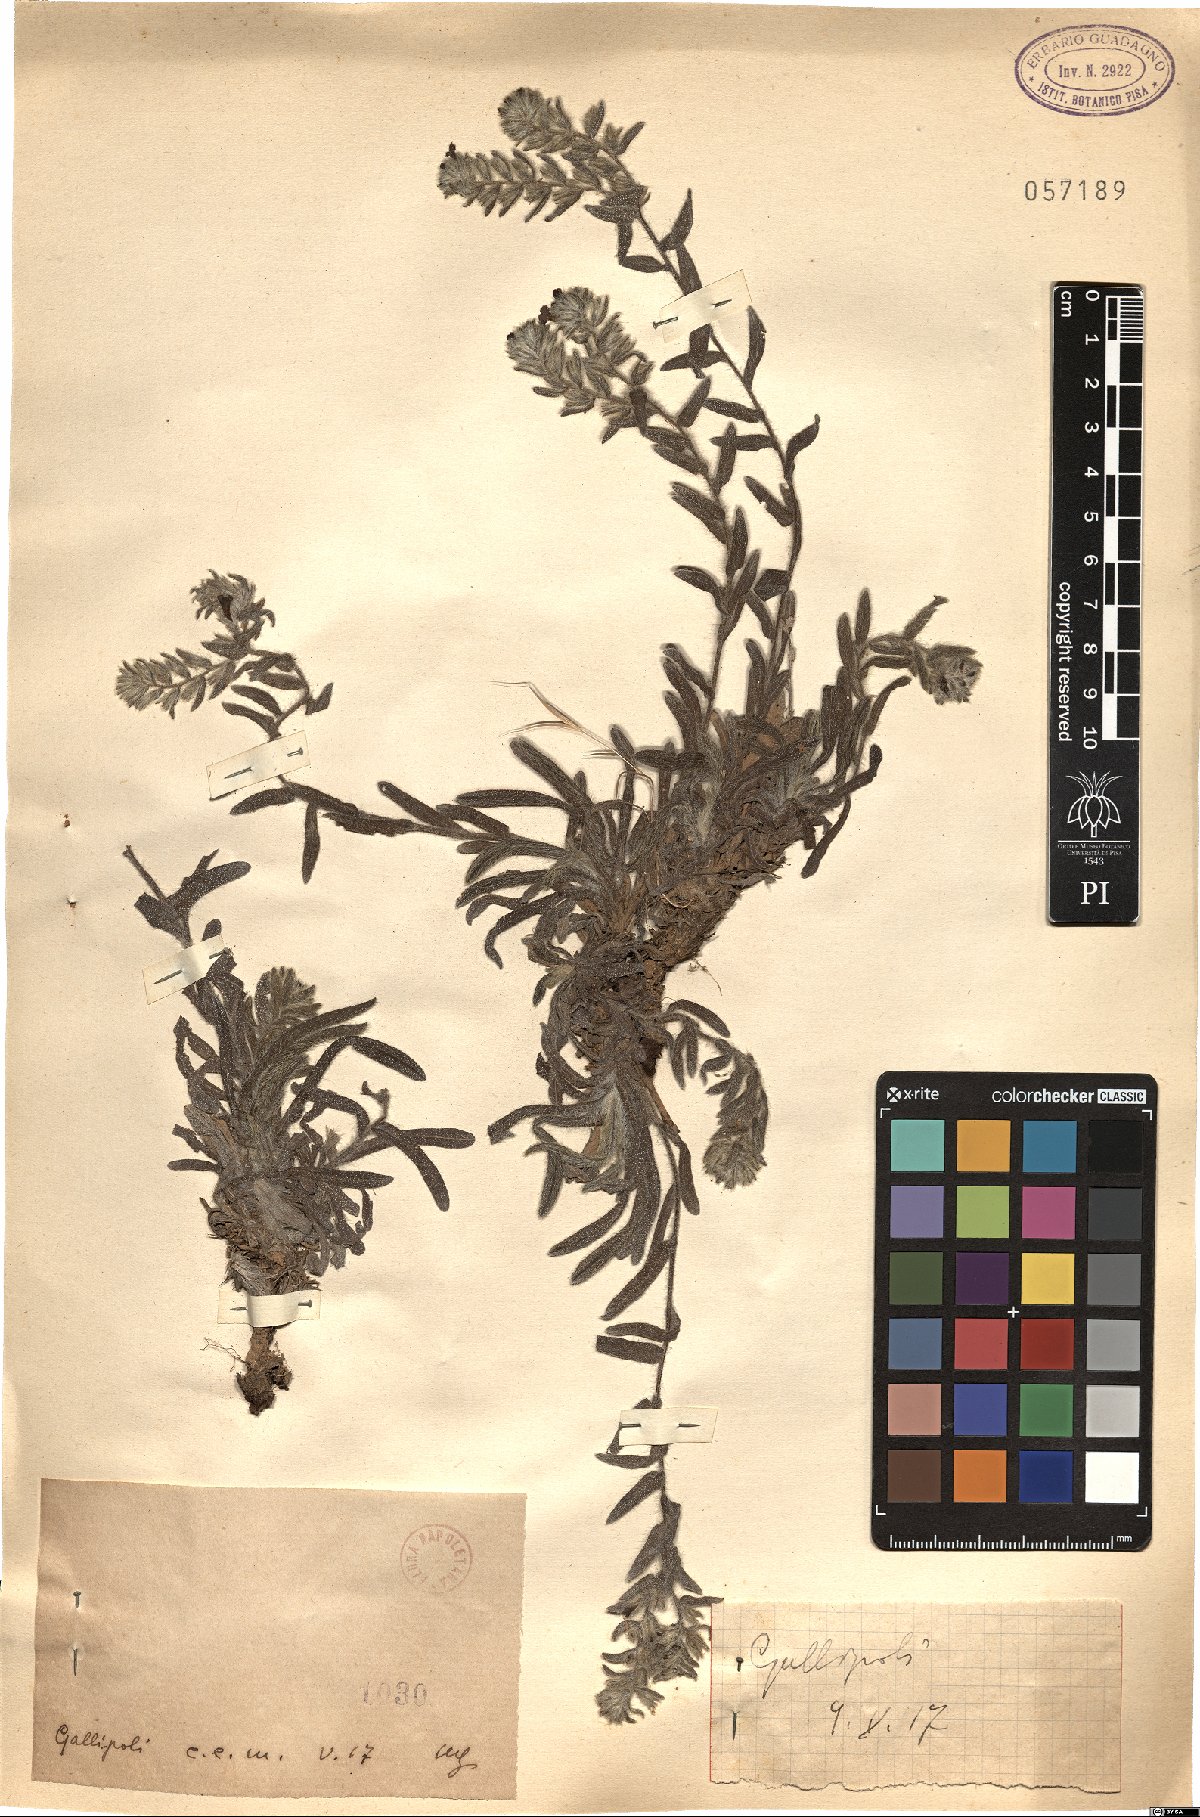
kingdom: Plantae
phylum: Tracheophyta
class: Magnoliopsida
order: Boraginales
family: Boraginaceae
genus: Alkanna
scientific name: Alkanna
